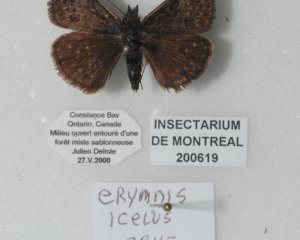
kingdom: Animalia
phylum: Arthropoda
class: Insecta
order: Lepidoptera
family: Hesperiidae
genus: Erynnis
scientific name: Erynnis icelus
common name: Dreamy Duskywing
